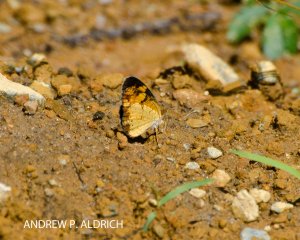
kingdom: Animalia
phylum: Arthropoda
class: Insecta
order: Lepidoptera
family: Nymphalidae
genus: Phyciodes
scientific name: Phyciodes tharos
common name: Pearl Crescent
